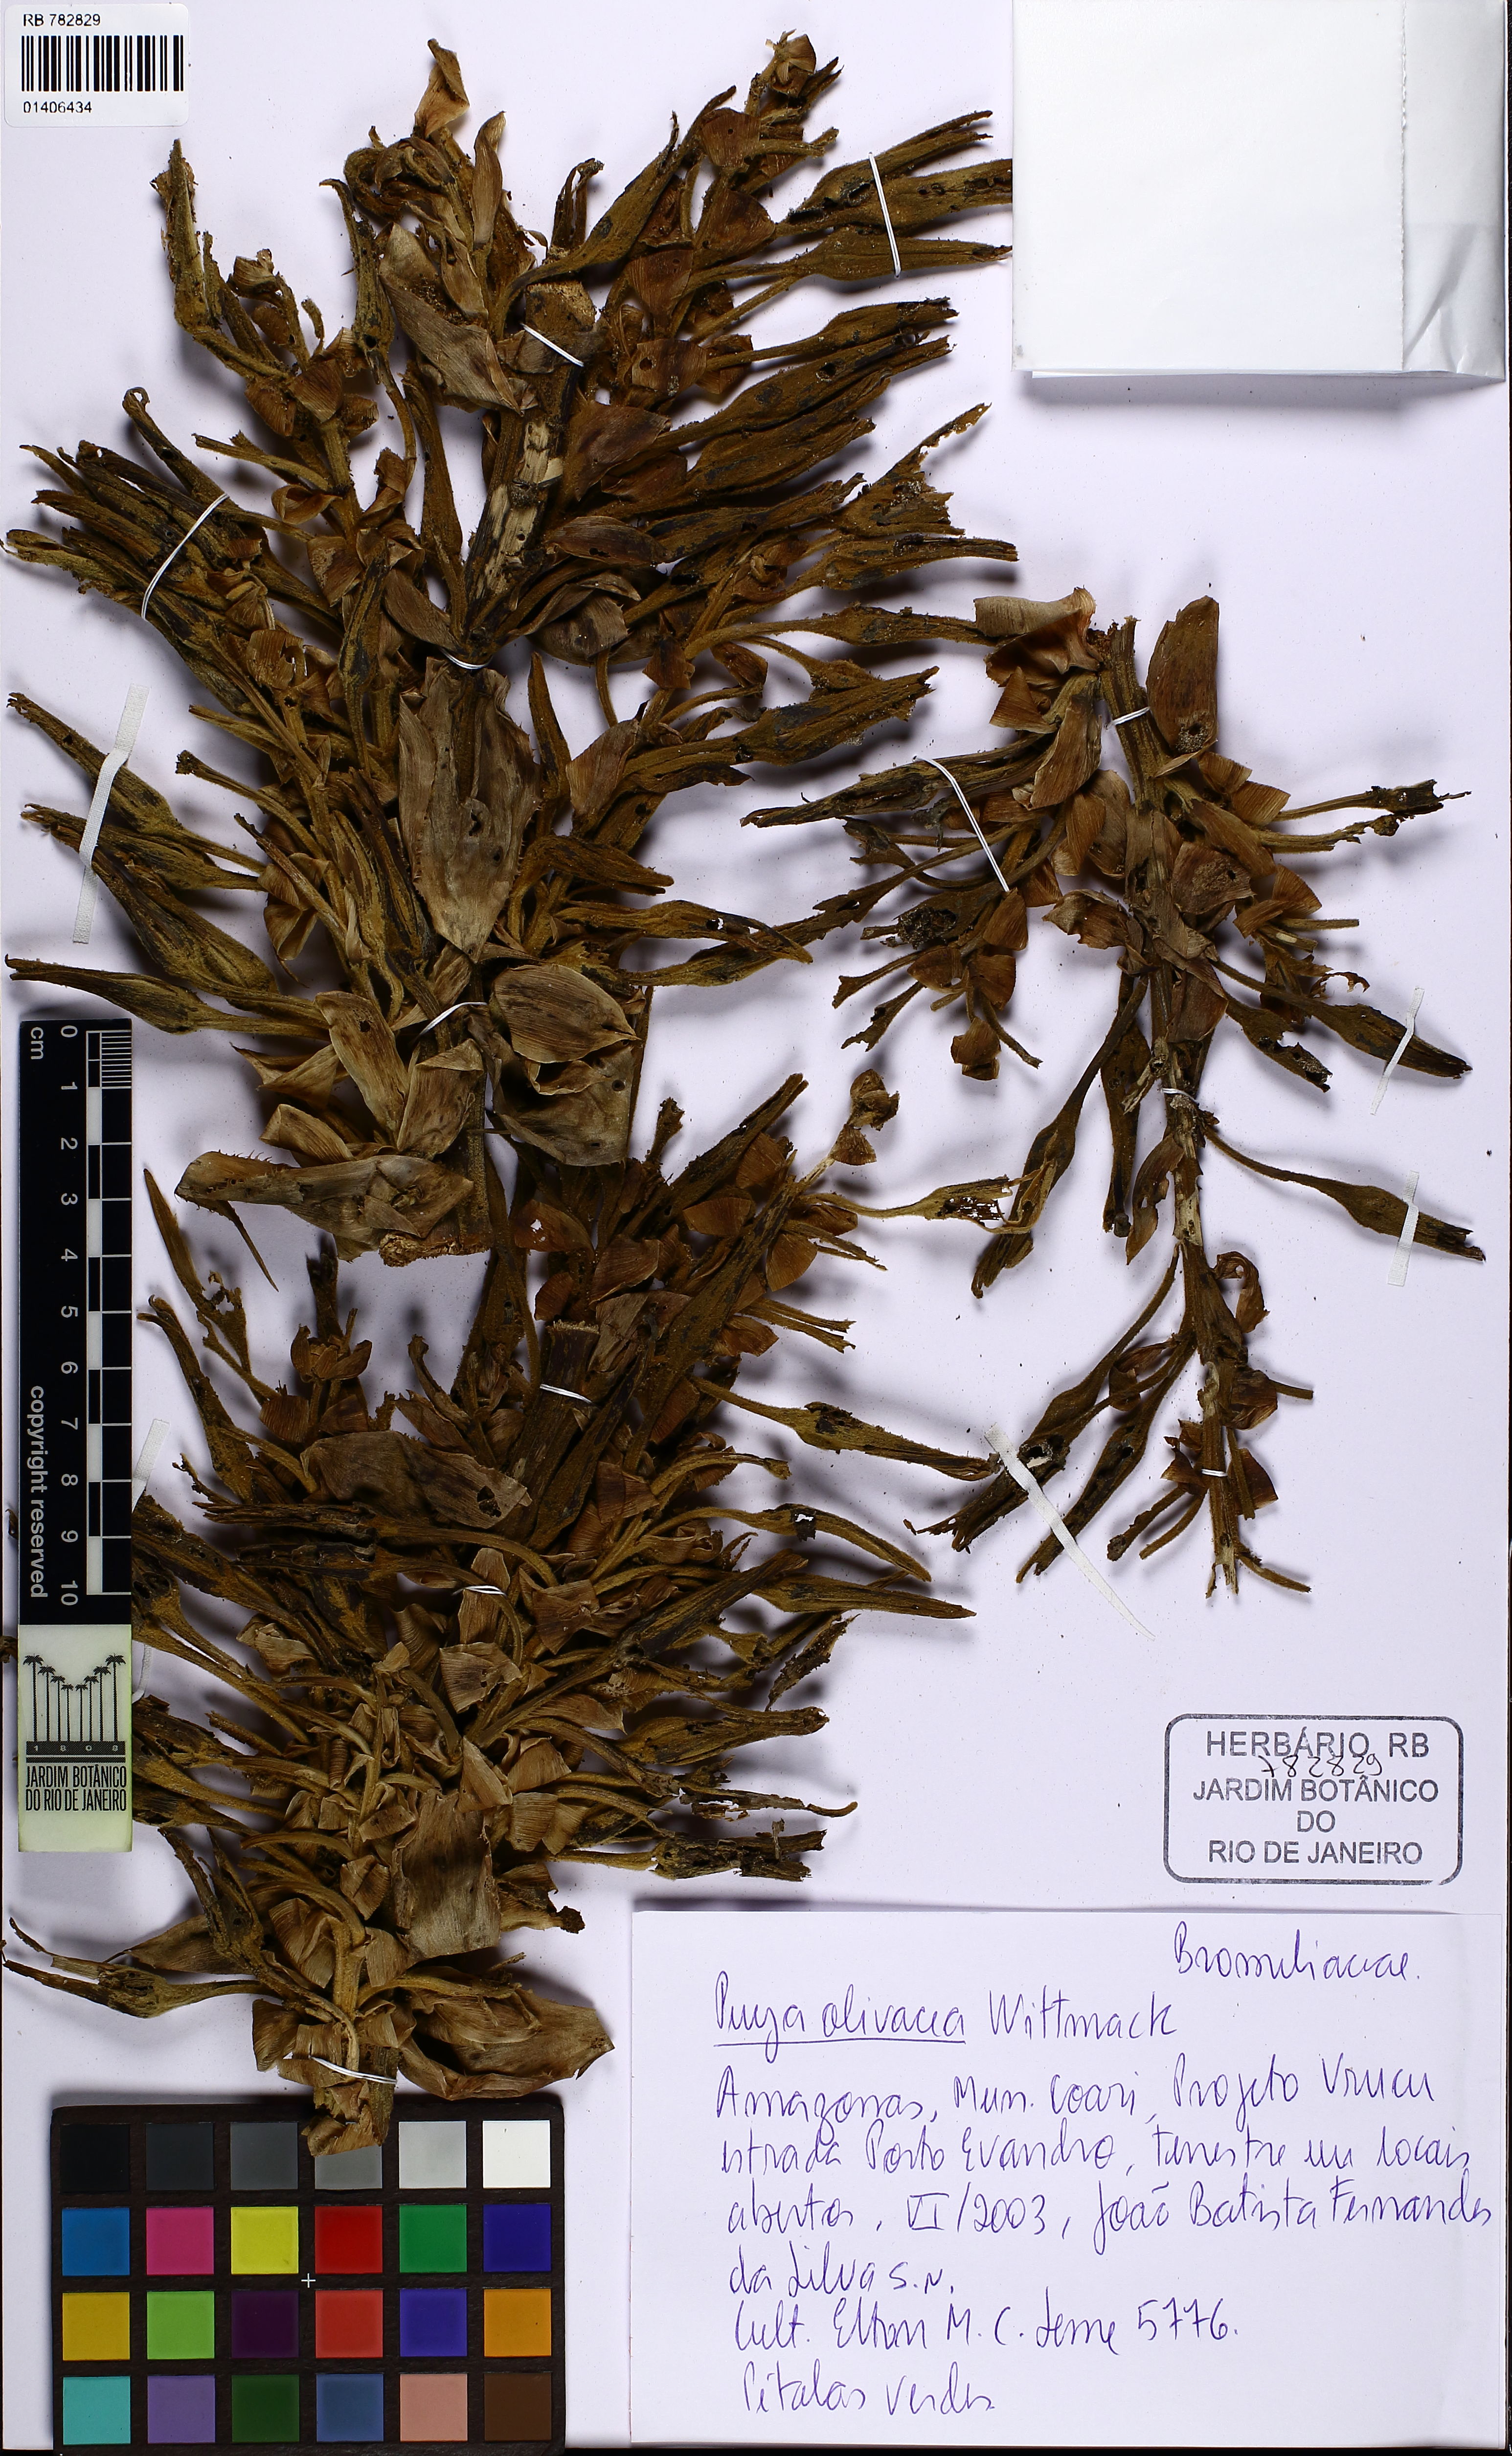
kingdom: Plantae
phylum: Tracheophyta
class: Liliopsida
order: Poales
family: Bromeliaceae
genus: Puya
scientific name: Puya olivacea
